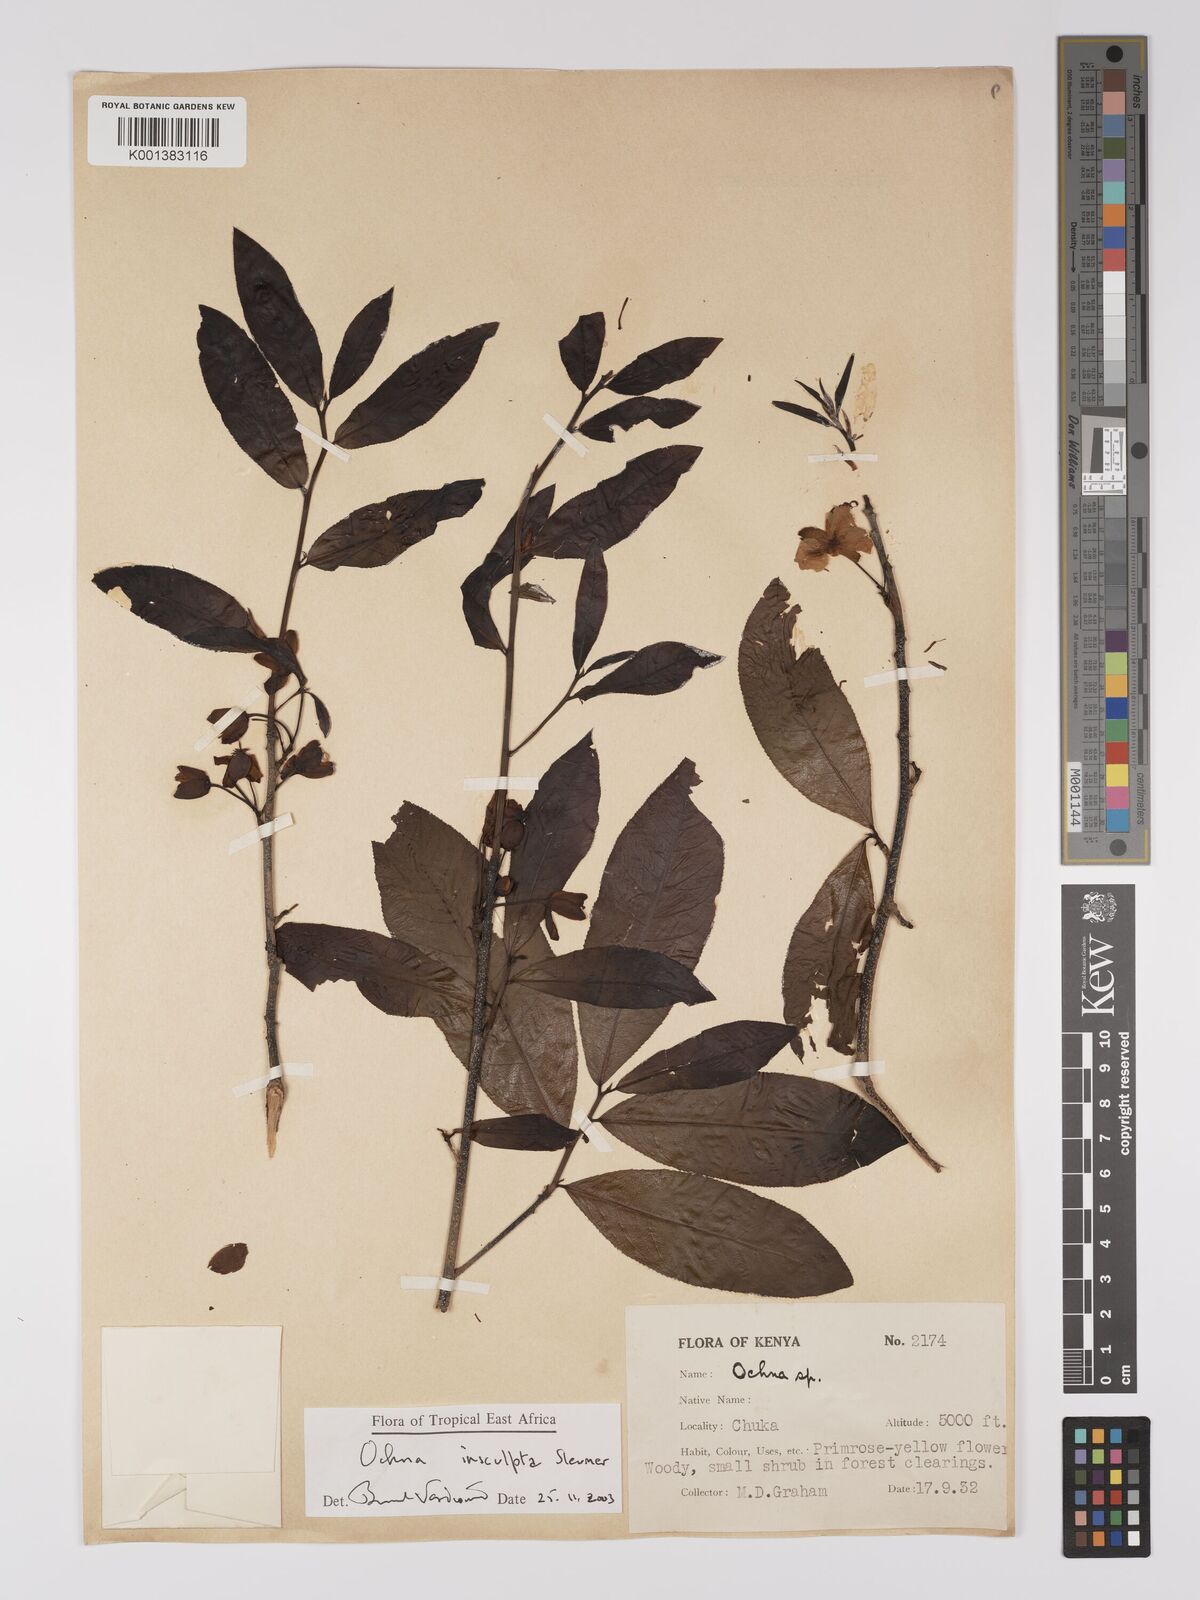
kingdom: Plantae
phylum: Tracheophyta
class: Magnoliopsida
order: Malpighiales
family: Ochnaceae
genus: Ochna
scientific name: Ochna insculpta
